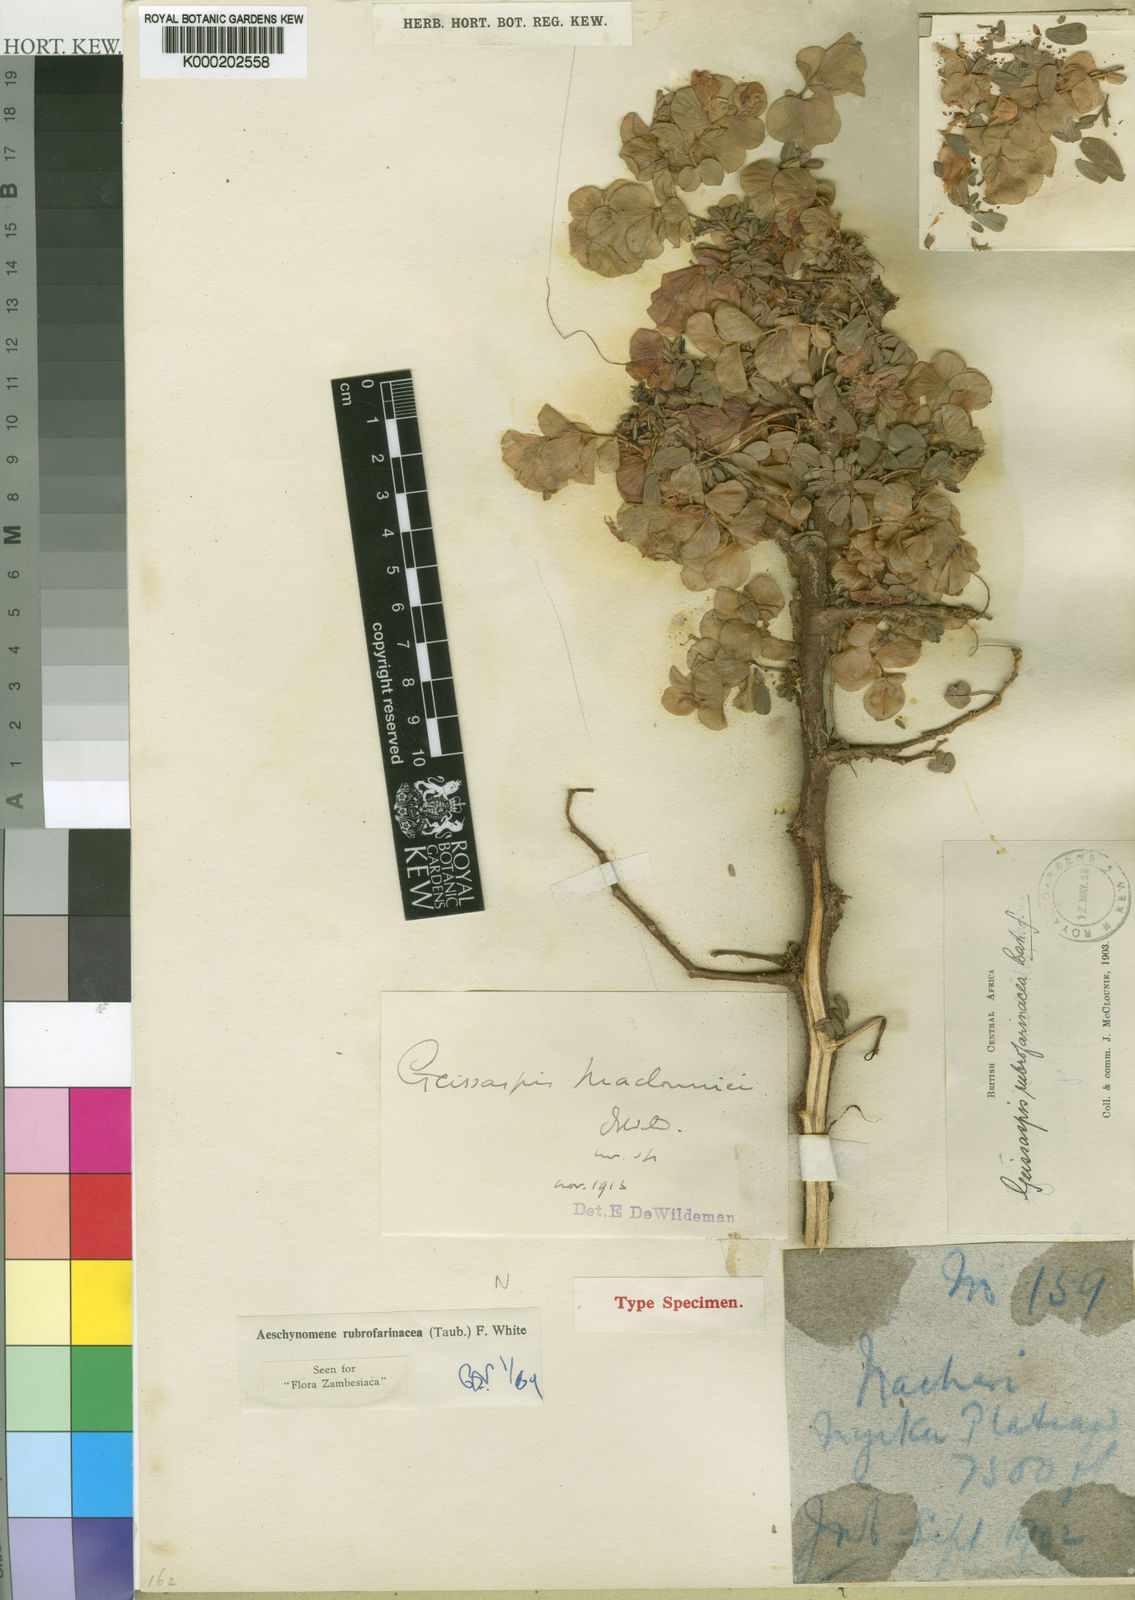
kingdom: Plantae
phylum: Tracheophyta
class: Magnoliopsida
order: Fabales
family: Fabaceae
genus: Aeschynomene
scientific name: Aeschynomene rubrofarinacea
